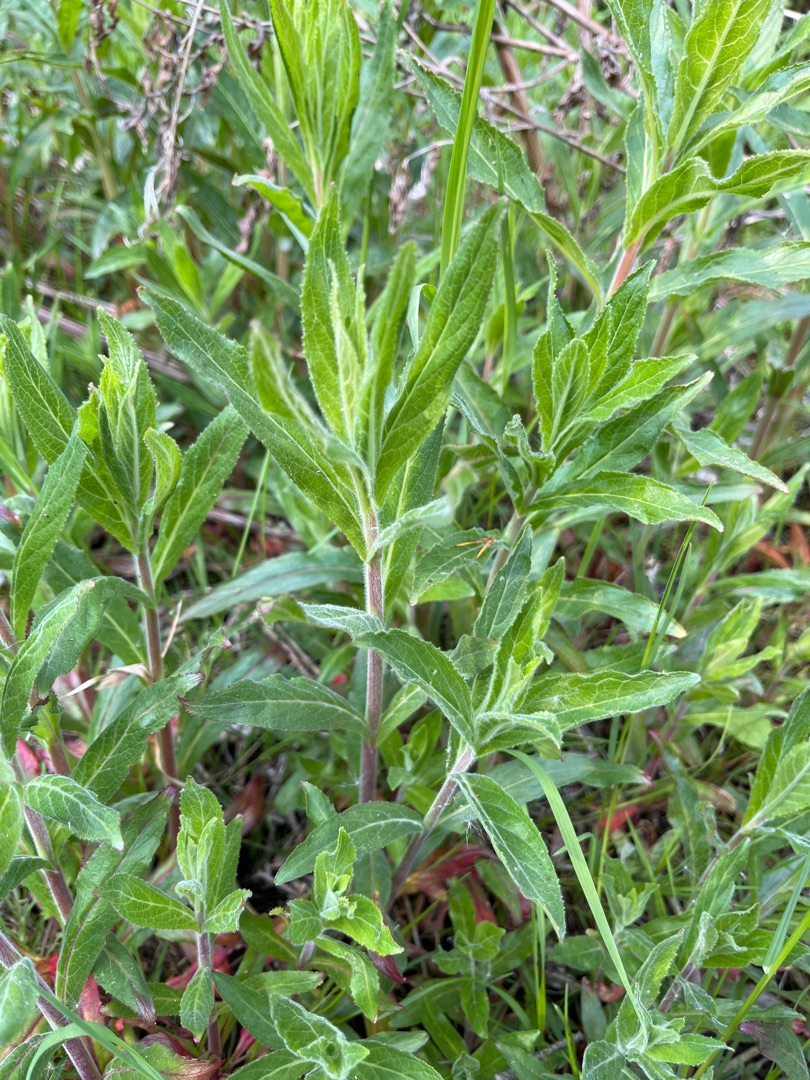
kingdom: Plantae
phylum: Tracheophyta
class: Magnoliopsida
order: Myrtales
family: Onagraceae
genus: Epilobium
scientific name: Epilobium hirsutum
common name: Lådden dueurt
